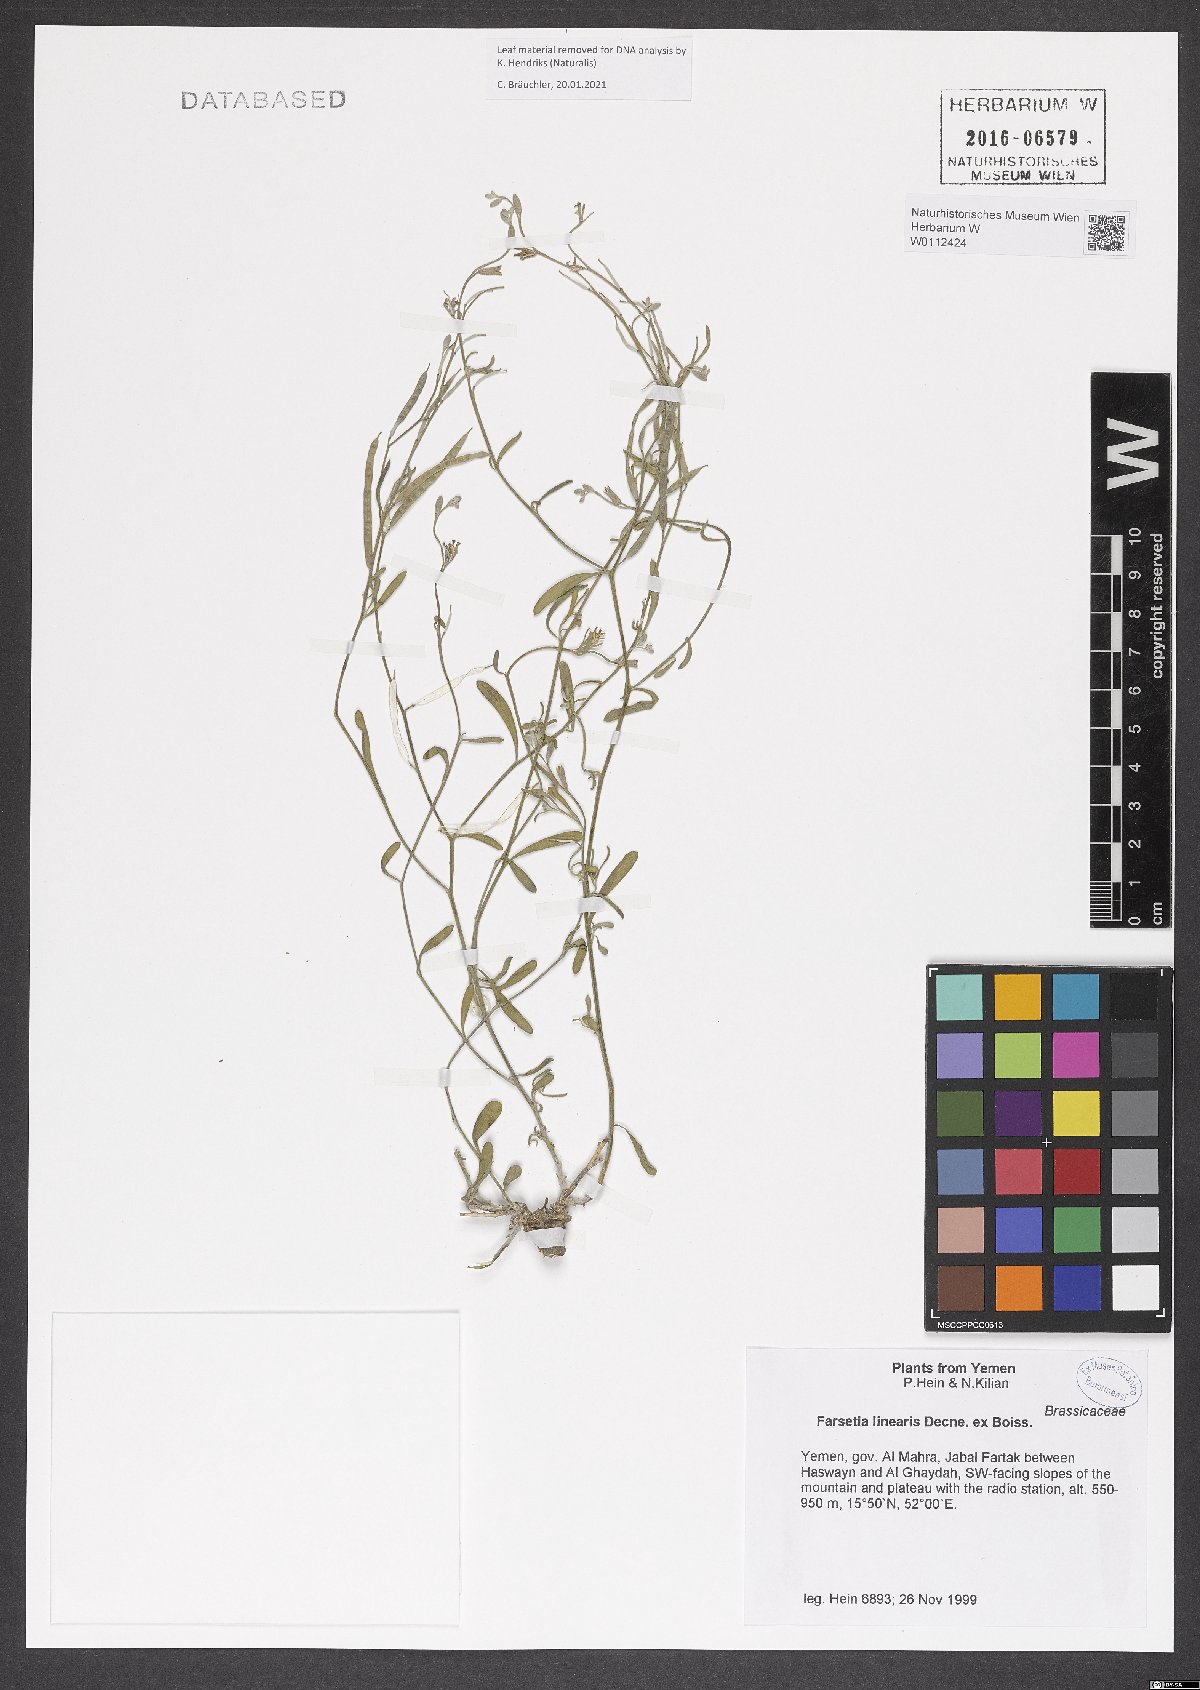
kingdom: Plantae
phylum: Tracheophyta
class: Magnoliopsida
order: Brassicales
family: Brassicaceae
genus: Farsetia
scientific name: Farsetia linearis
